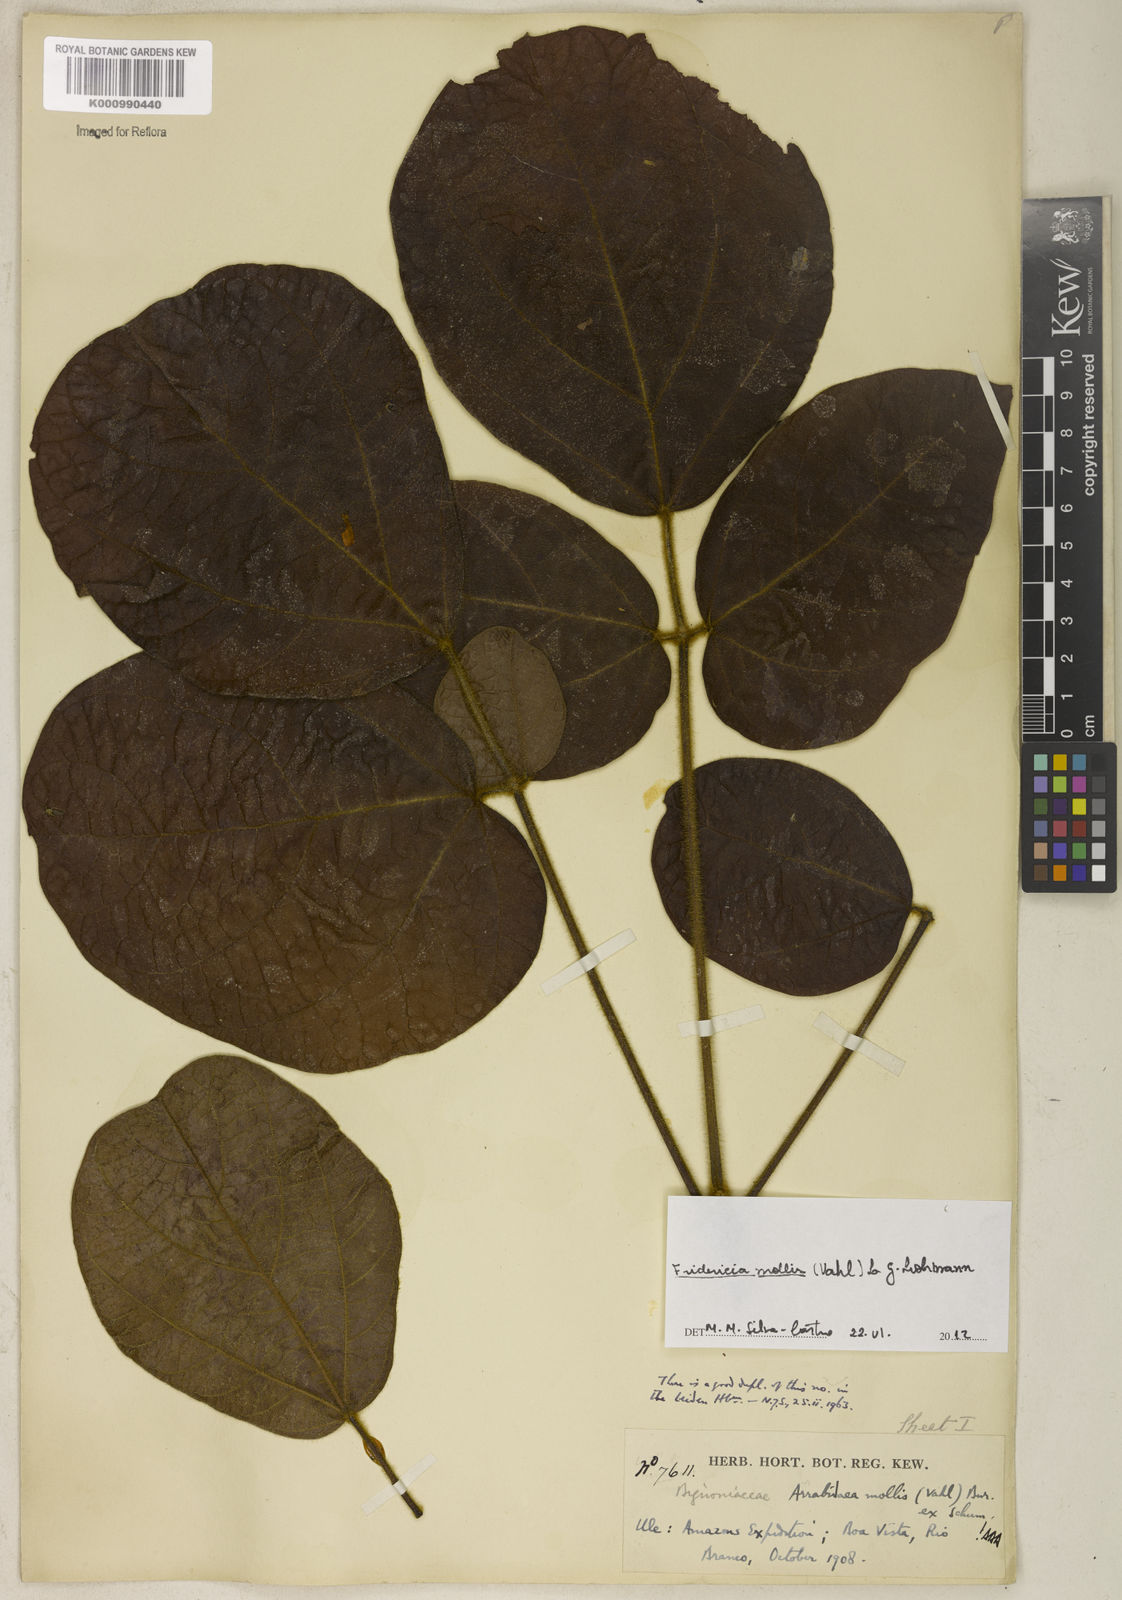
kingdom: Plantae
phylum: Tracheophyta
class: Magnoliopsida
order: Lamiales
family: Bignoniaceae
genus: Fridericia
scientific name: Fridericia mollis
